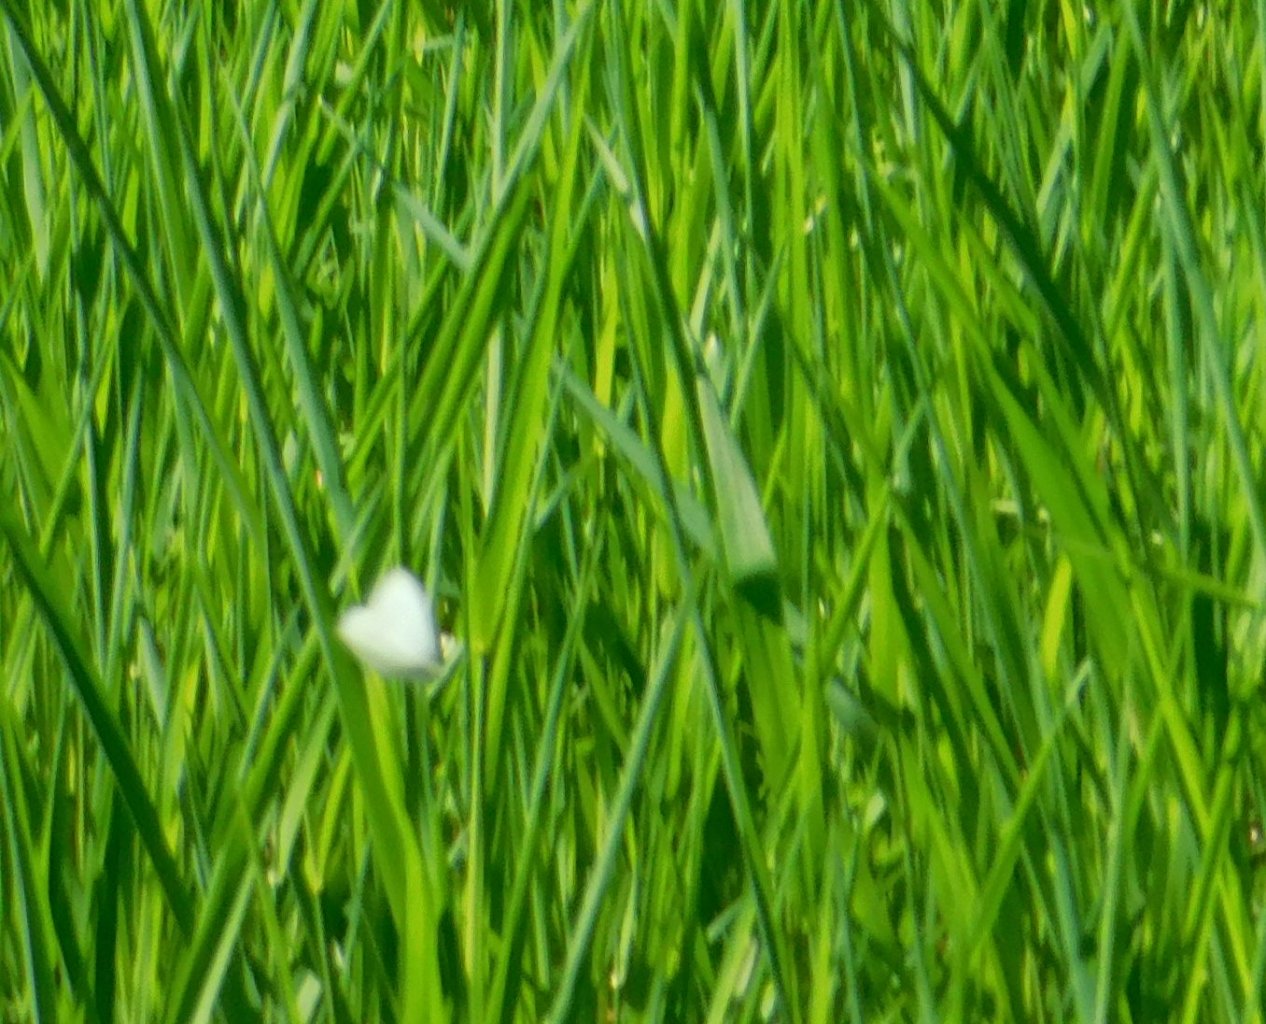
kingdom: Animalia
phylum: Arthropoda
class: Insecta
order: Lepidoptera
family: Pieridae
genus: Pieris
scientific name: Pieris rapae
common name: Cabbage White
